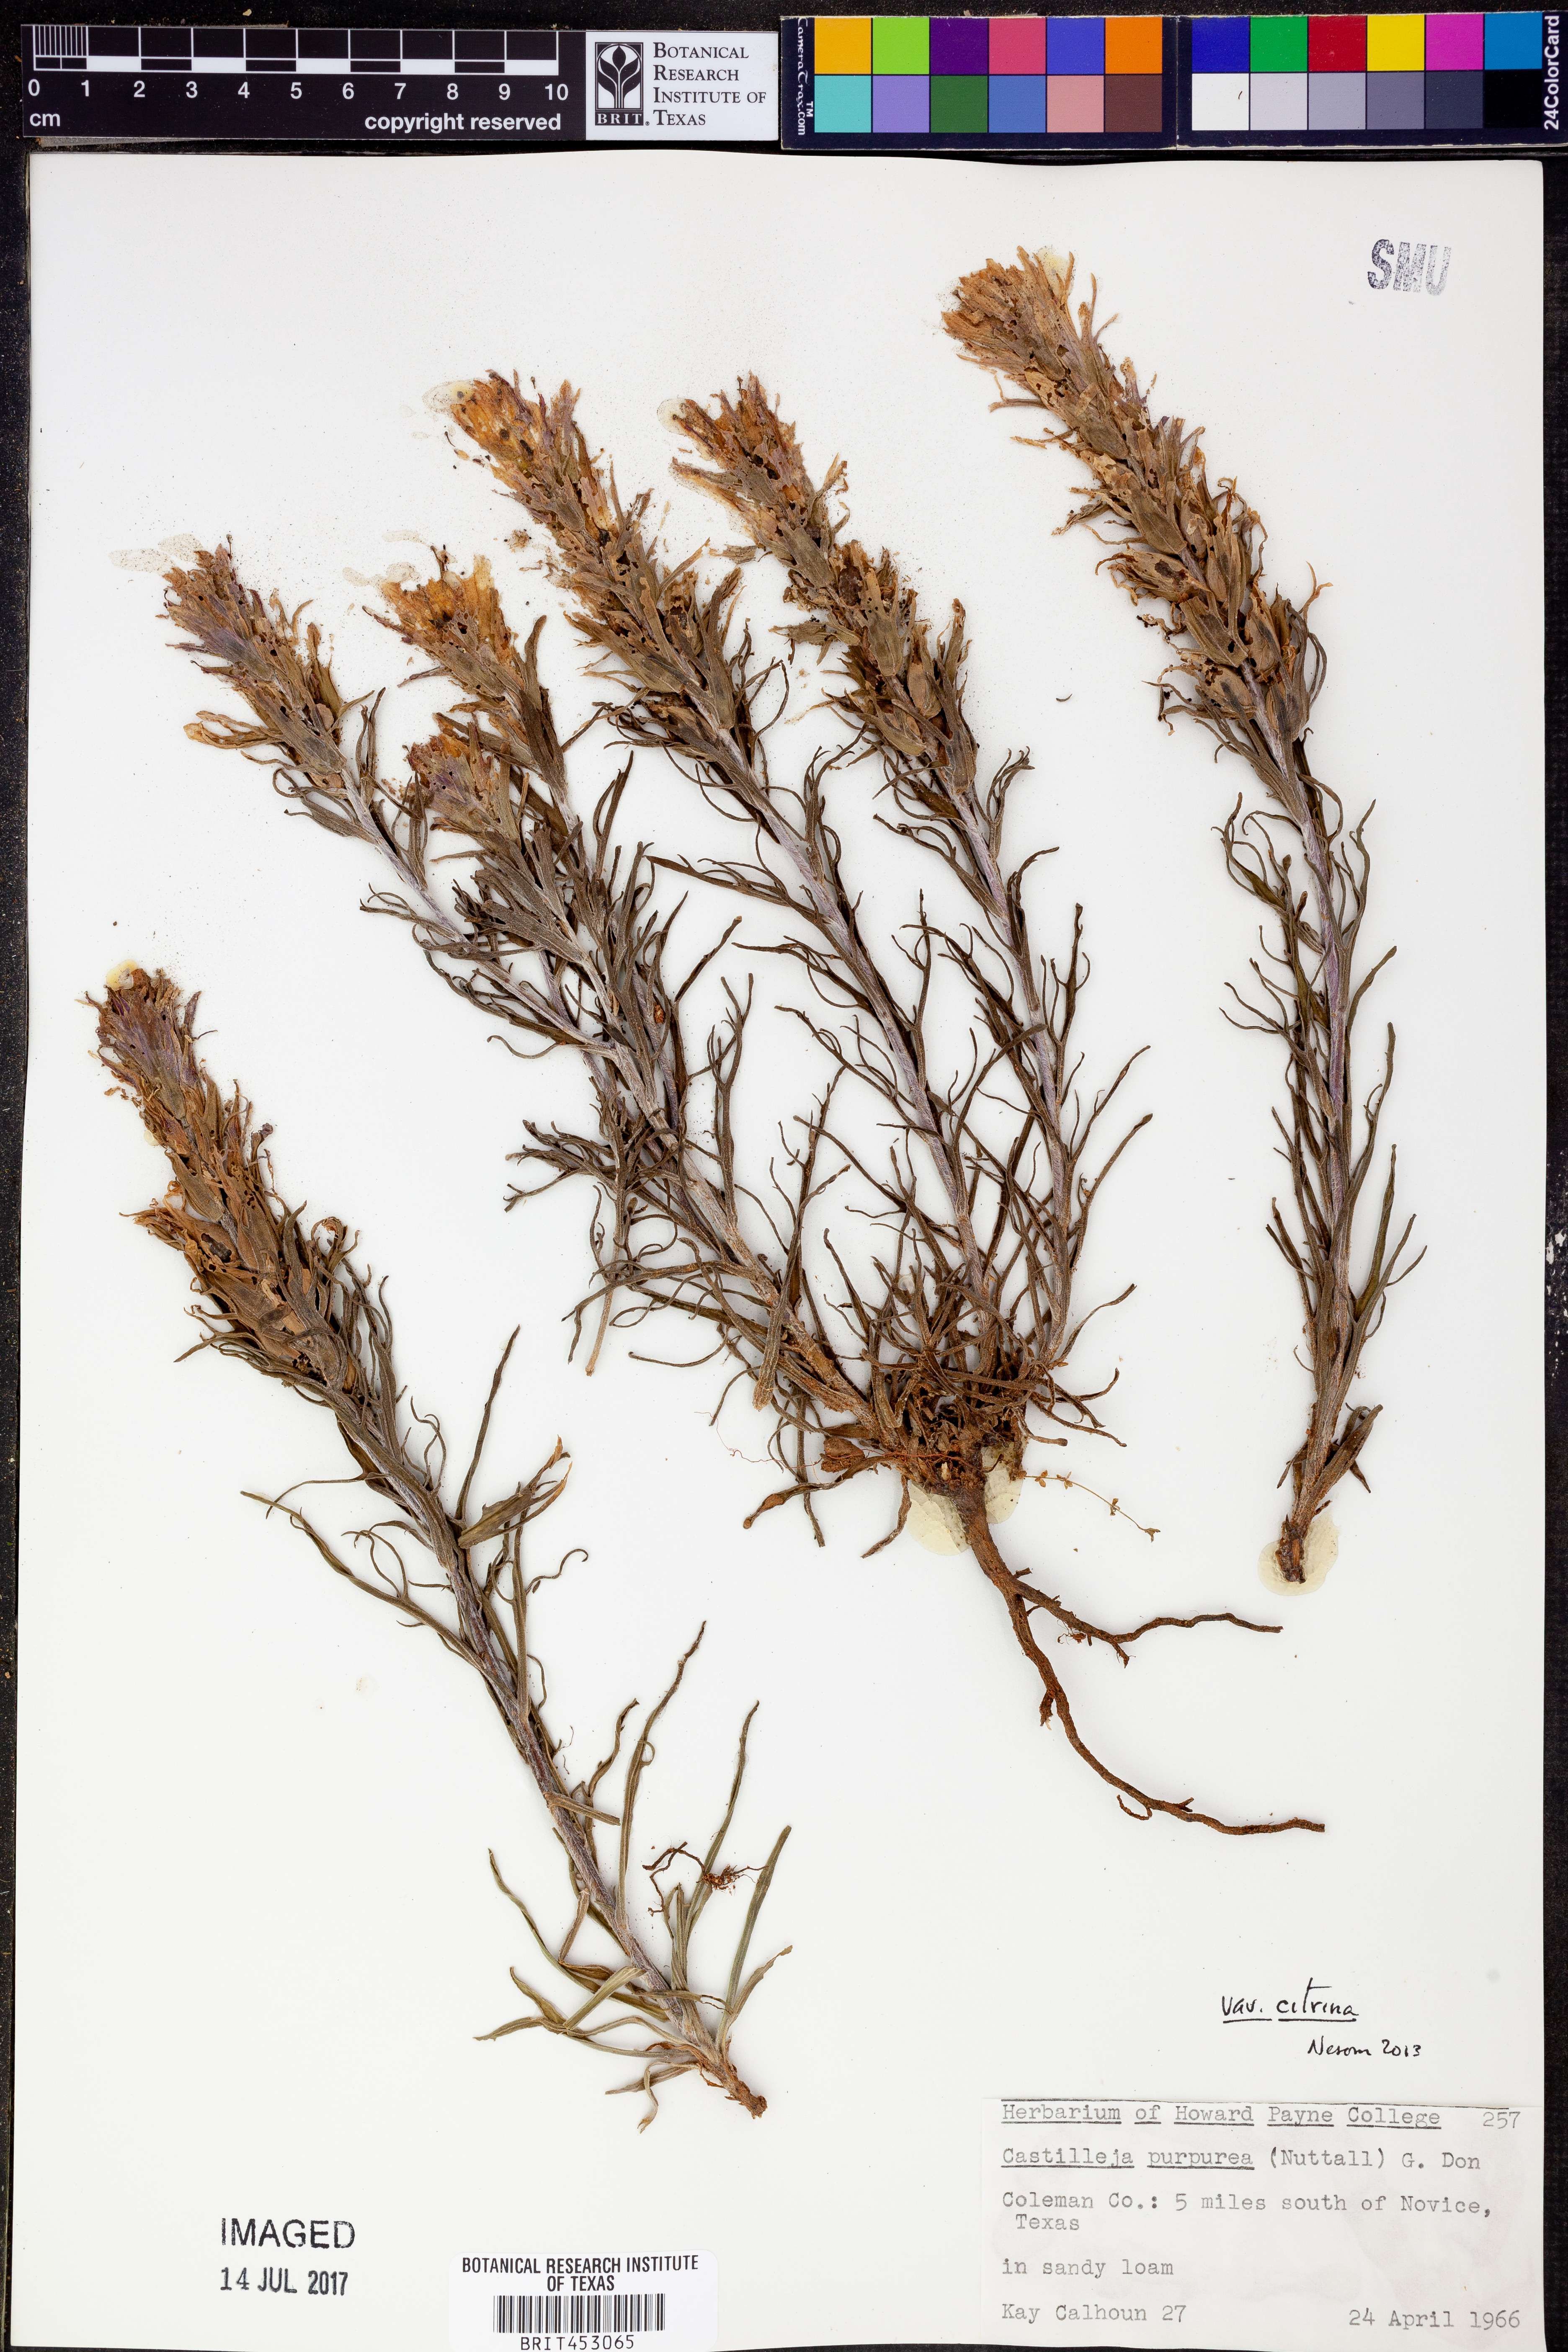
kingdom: Plantae
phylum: Tracheophyta
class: Magnoliopsida
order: Lamiales
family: Orobanchaceae
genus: Castilleja
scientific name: Castilleja citrina
